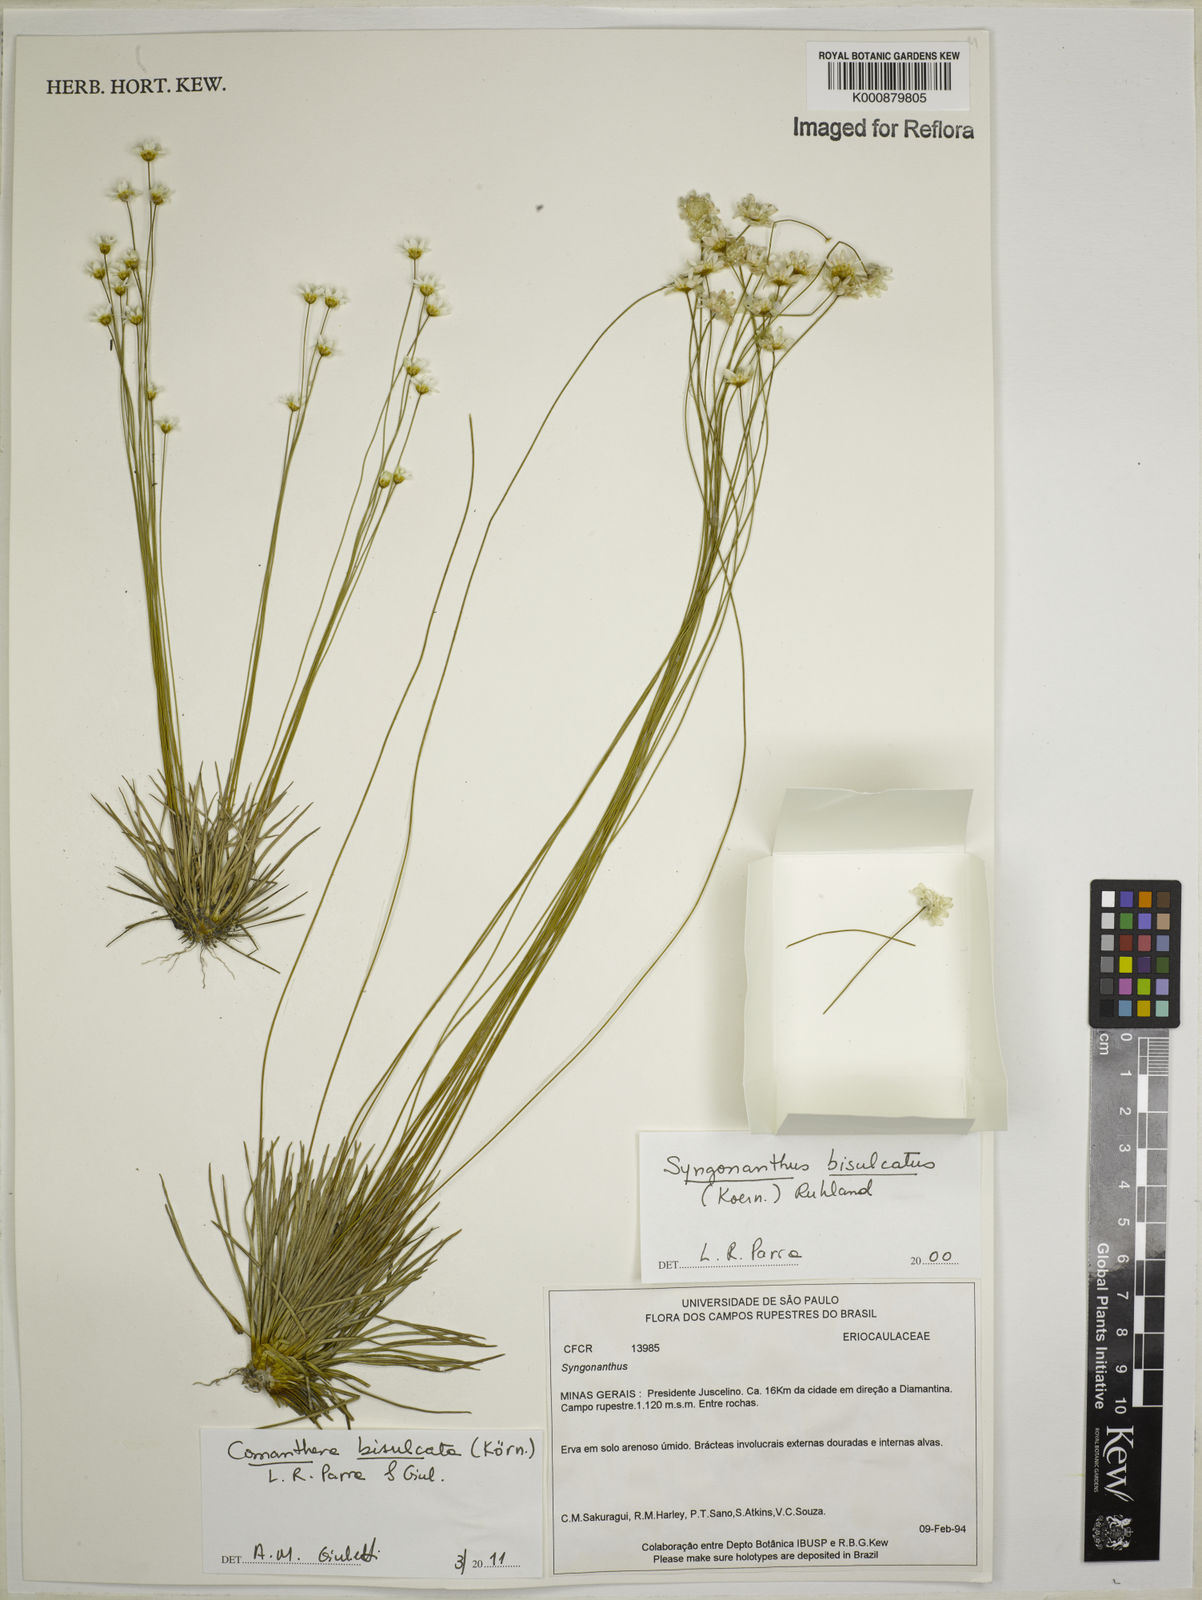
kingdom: Plantae
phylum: Tracheophyta
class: Liliopsida
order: Poales
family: Eriocaulaceae
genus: Comanthera
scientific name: Comanthera
